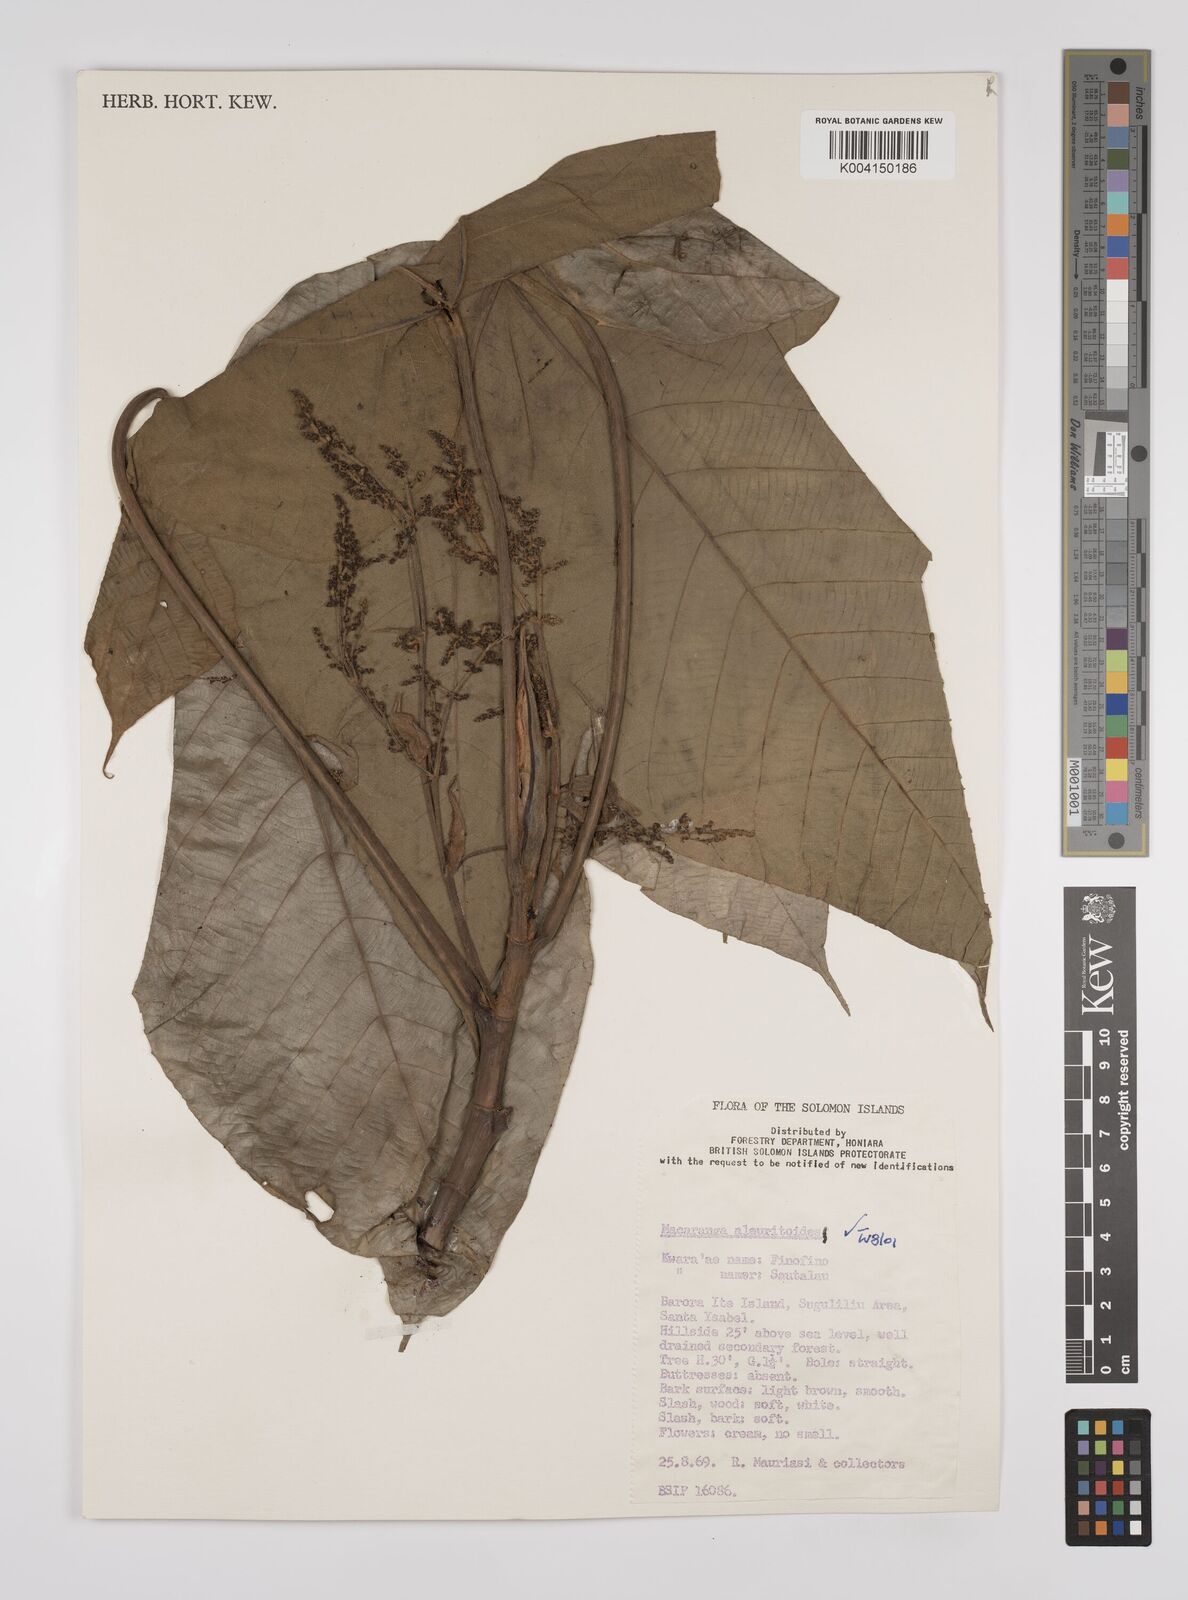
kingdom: Plantae
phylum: Tracheophyta
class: Magnoliopsida
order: Malpighiales
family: Euphorbiaceae
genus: Macaranga
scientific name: Macaranga aleuritoides
